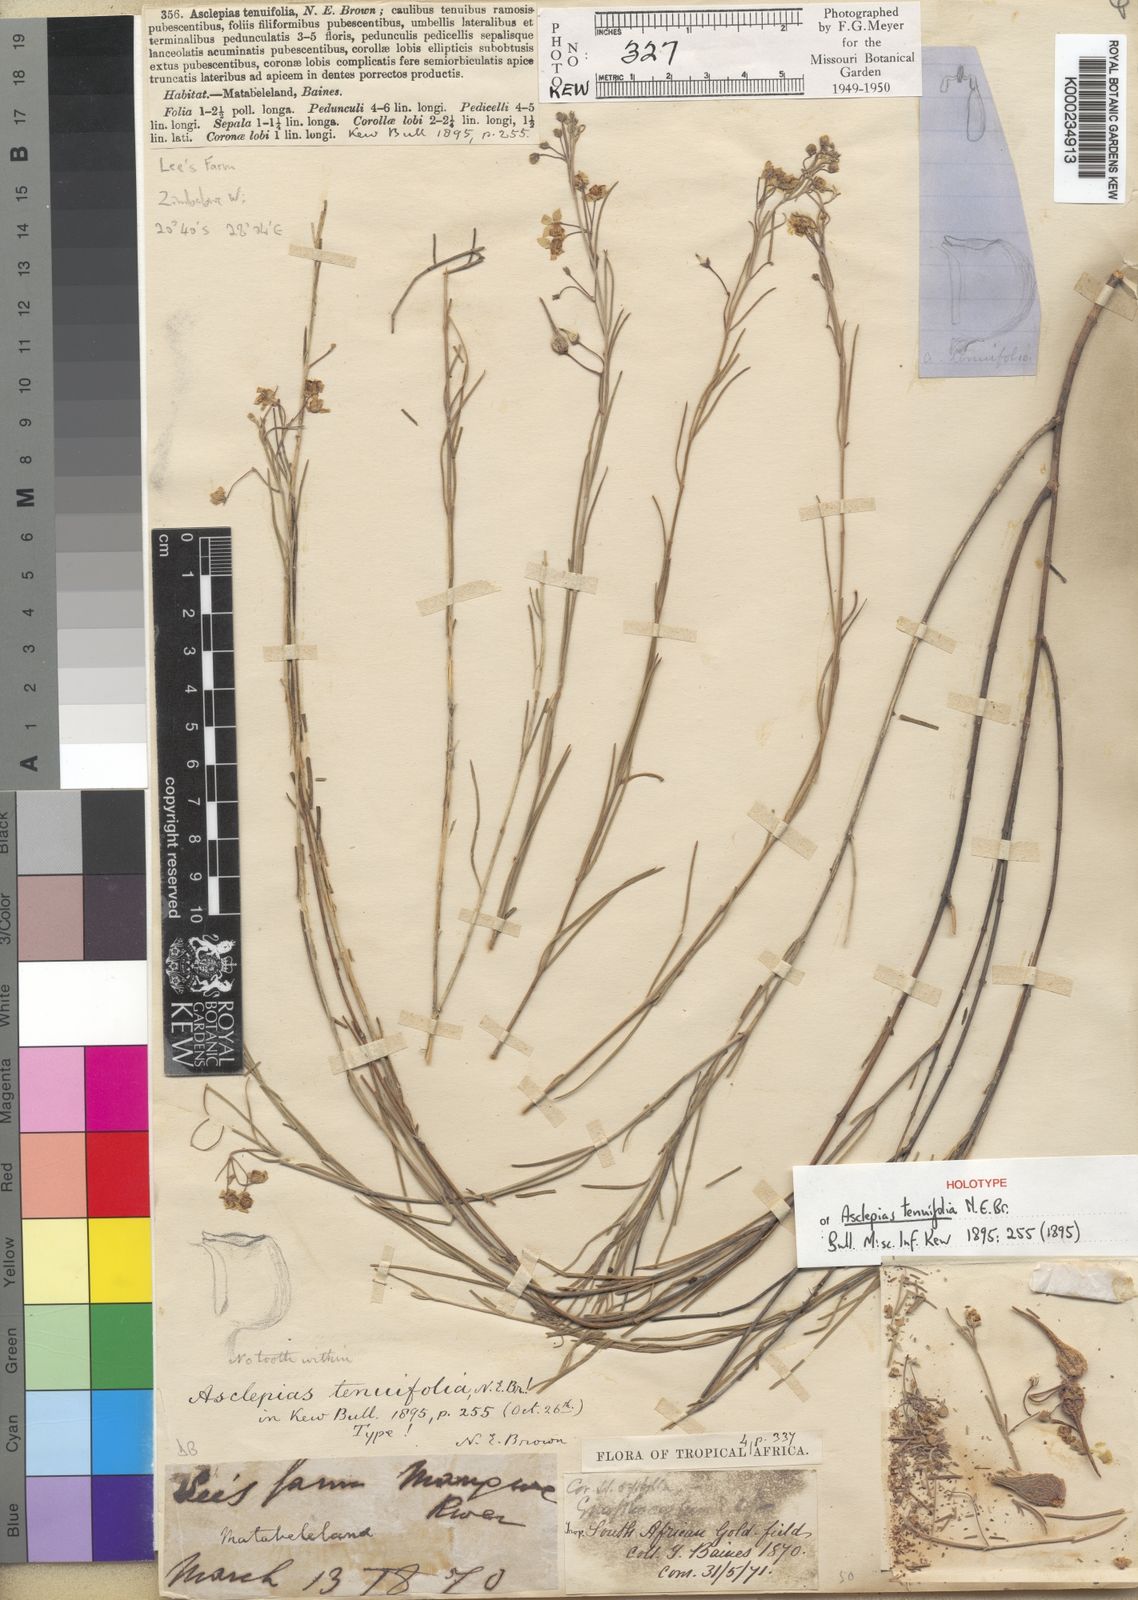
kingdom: Plantae
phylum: Tracheophyta
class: Magnoliopsida
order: Gentianales
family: Apocynaceae
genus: Gomphocarpus
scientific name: Gomphocarpus tenuifolius
